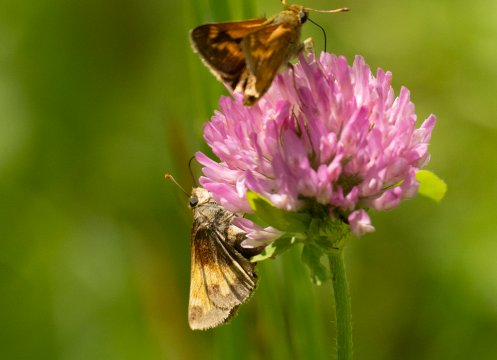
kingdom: Animalia
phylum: Arthropoda
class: Insecta
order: Lepidoptera
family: Hesperiidae
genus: Lon
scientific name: Lon hobomok
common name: Hobomok Skipper
